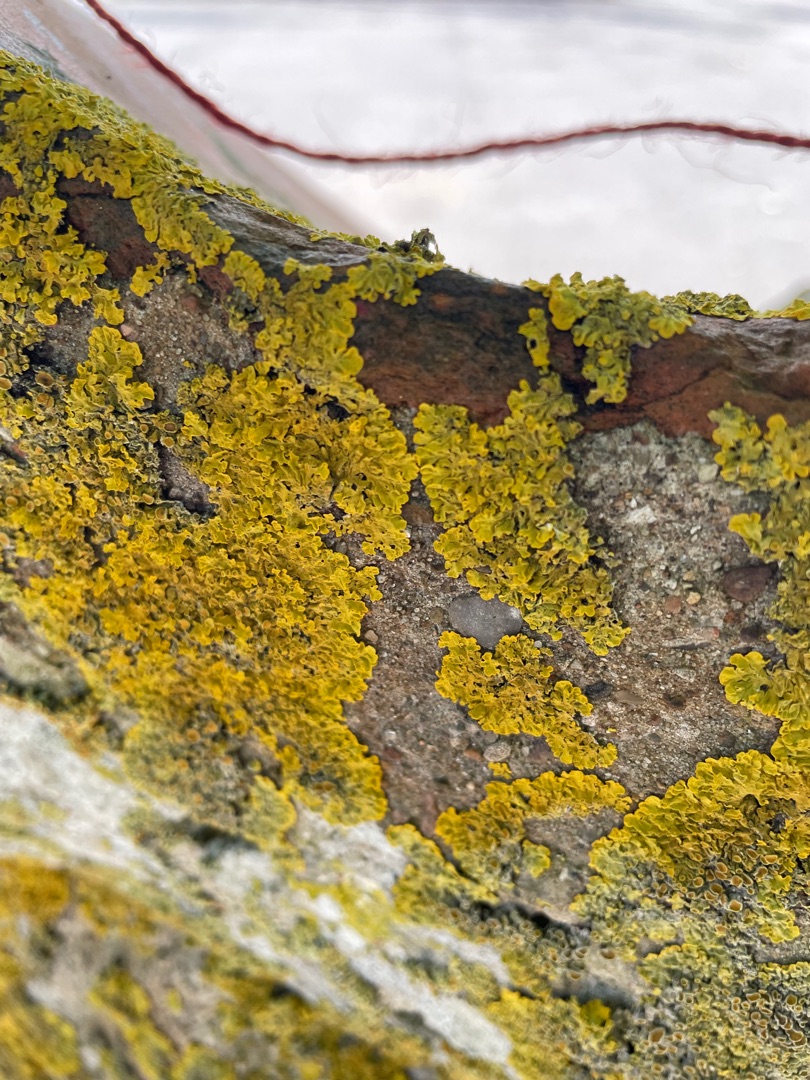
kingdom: Fungi
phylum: Ascomycota
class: Lecanoromycetes
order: Teloschistales
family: Teloschistaceae
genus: Xanthoria
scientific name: Xanthoria parietina
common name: Almindelig væggelav
